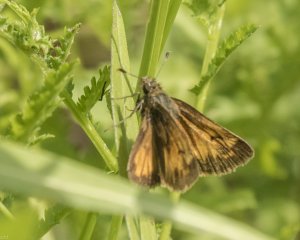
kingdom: Animalia
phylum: Arthropoda
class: Insecta
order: Lepidoptera
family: Hesperiidae
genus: Lon
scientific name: Lon hobomok
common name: Hobomok Skipper
